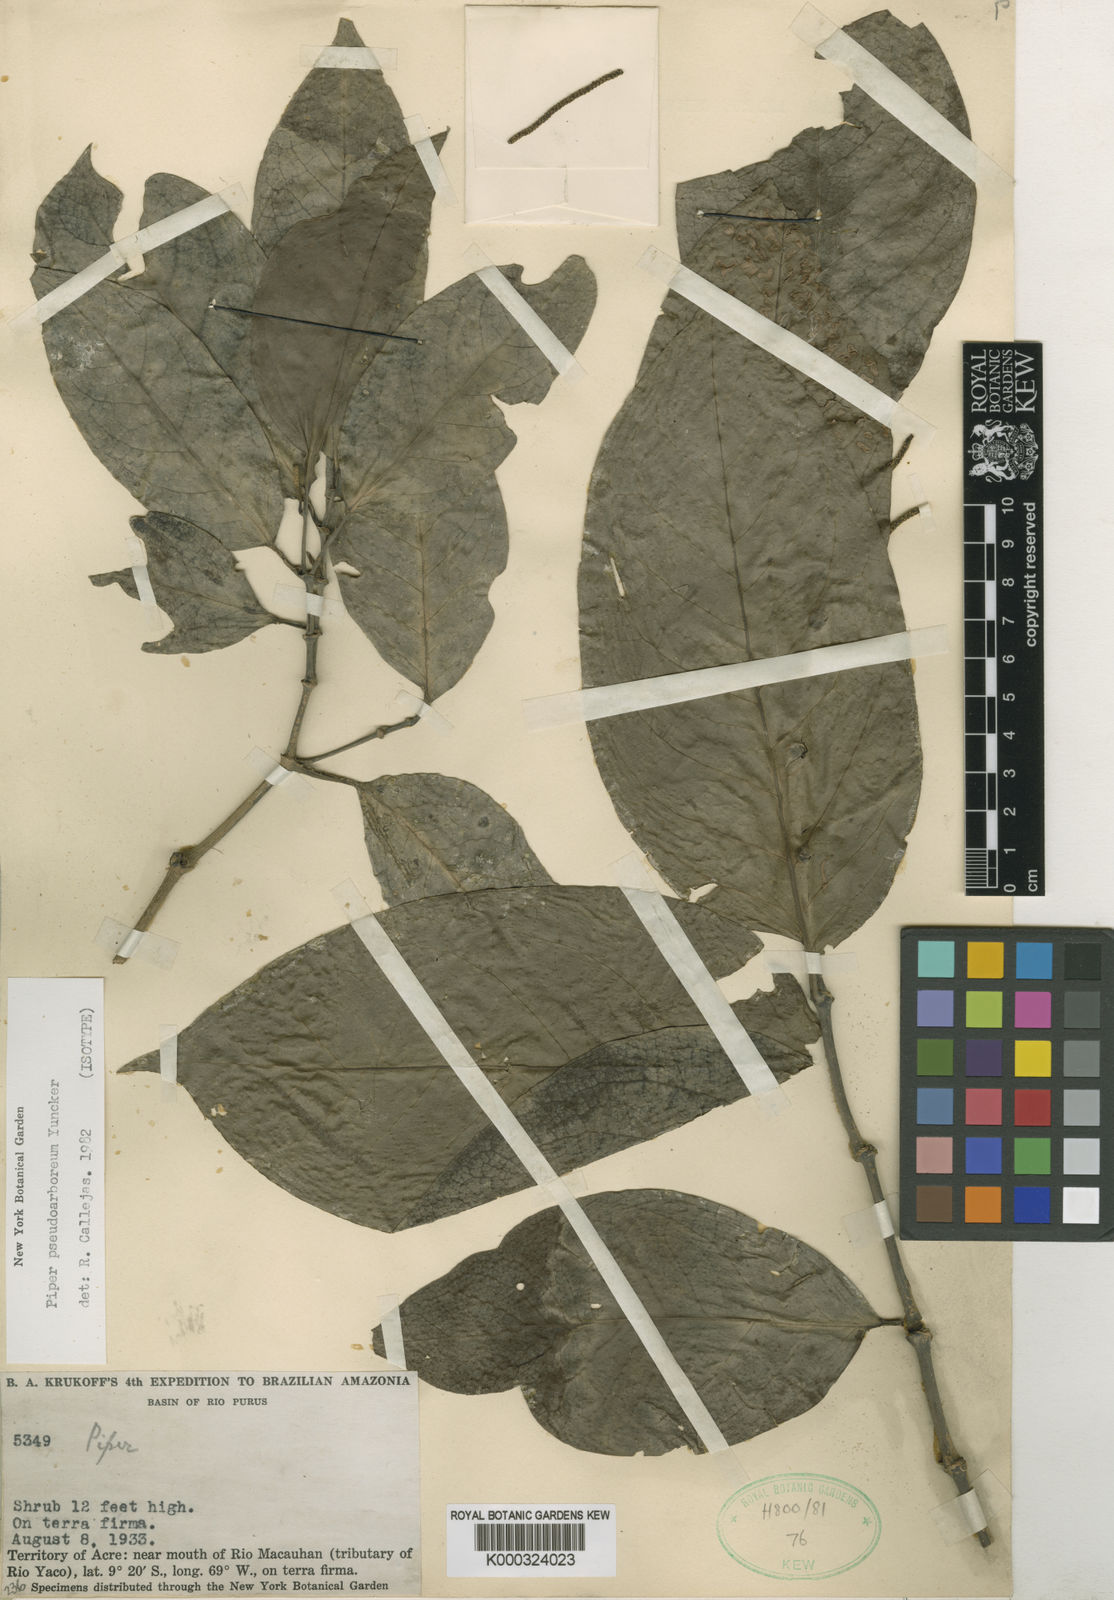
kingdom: Plantae
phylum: Tracheophyta
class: Magnoliopsida
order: Piperales
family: Piperaceae
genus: Piper
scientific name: Piper pseudoarboreum
